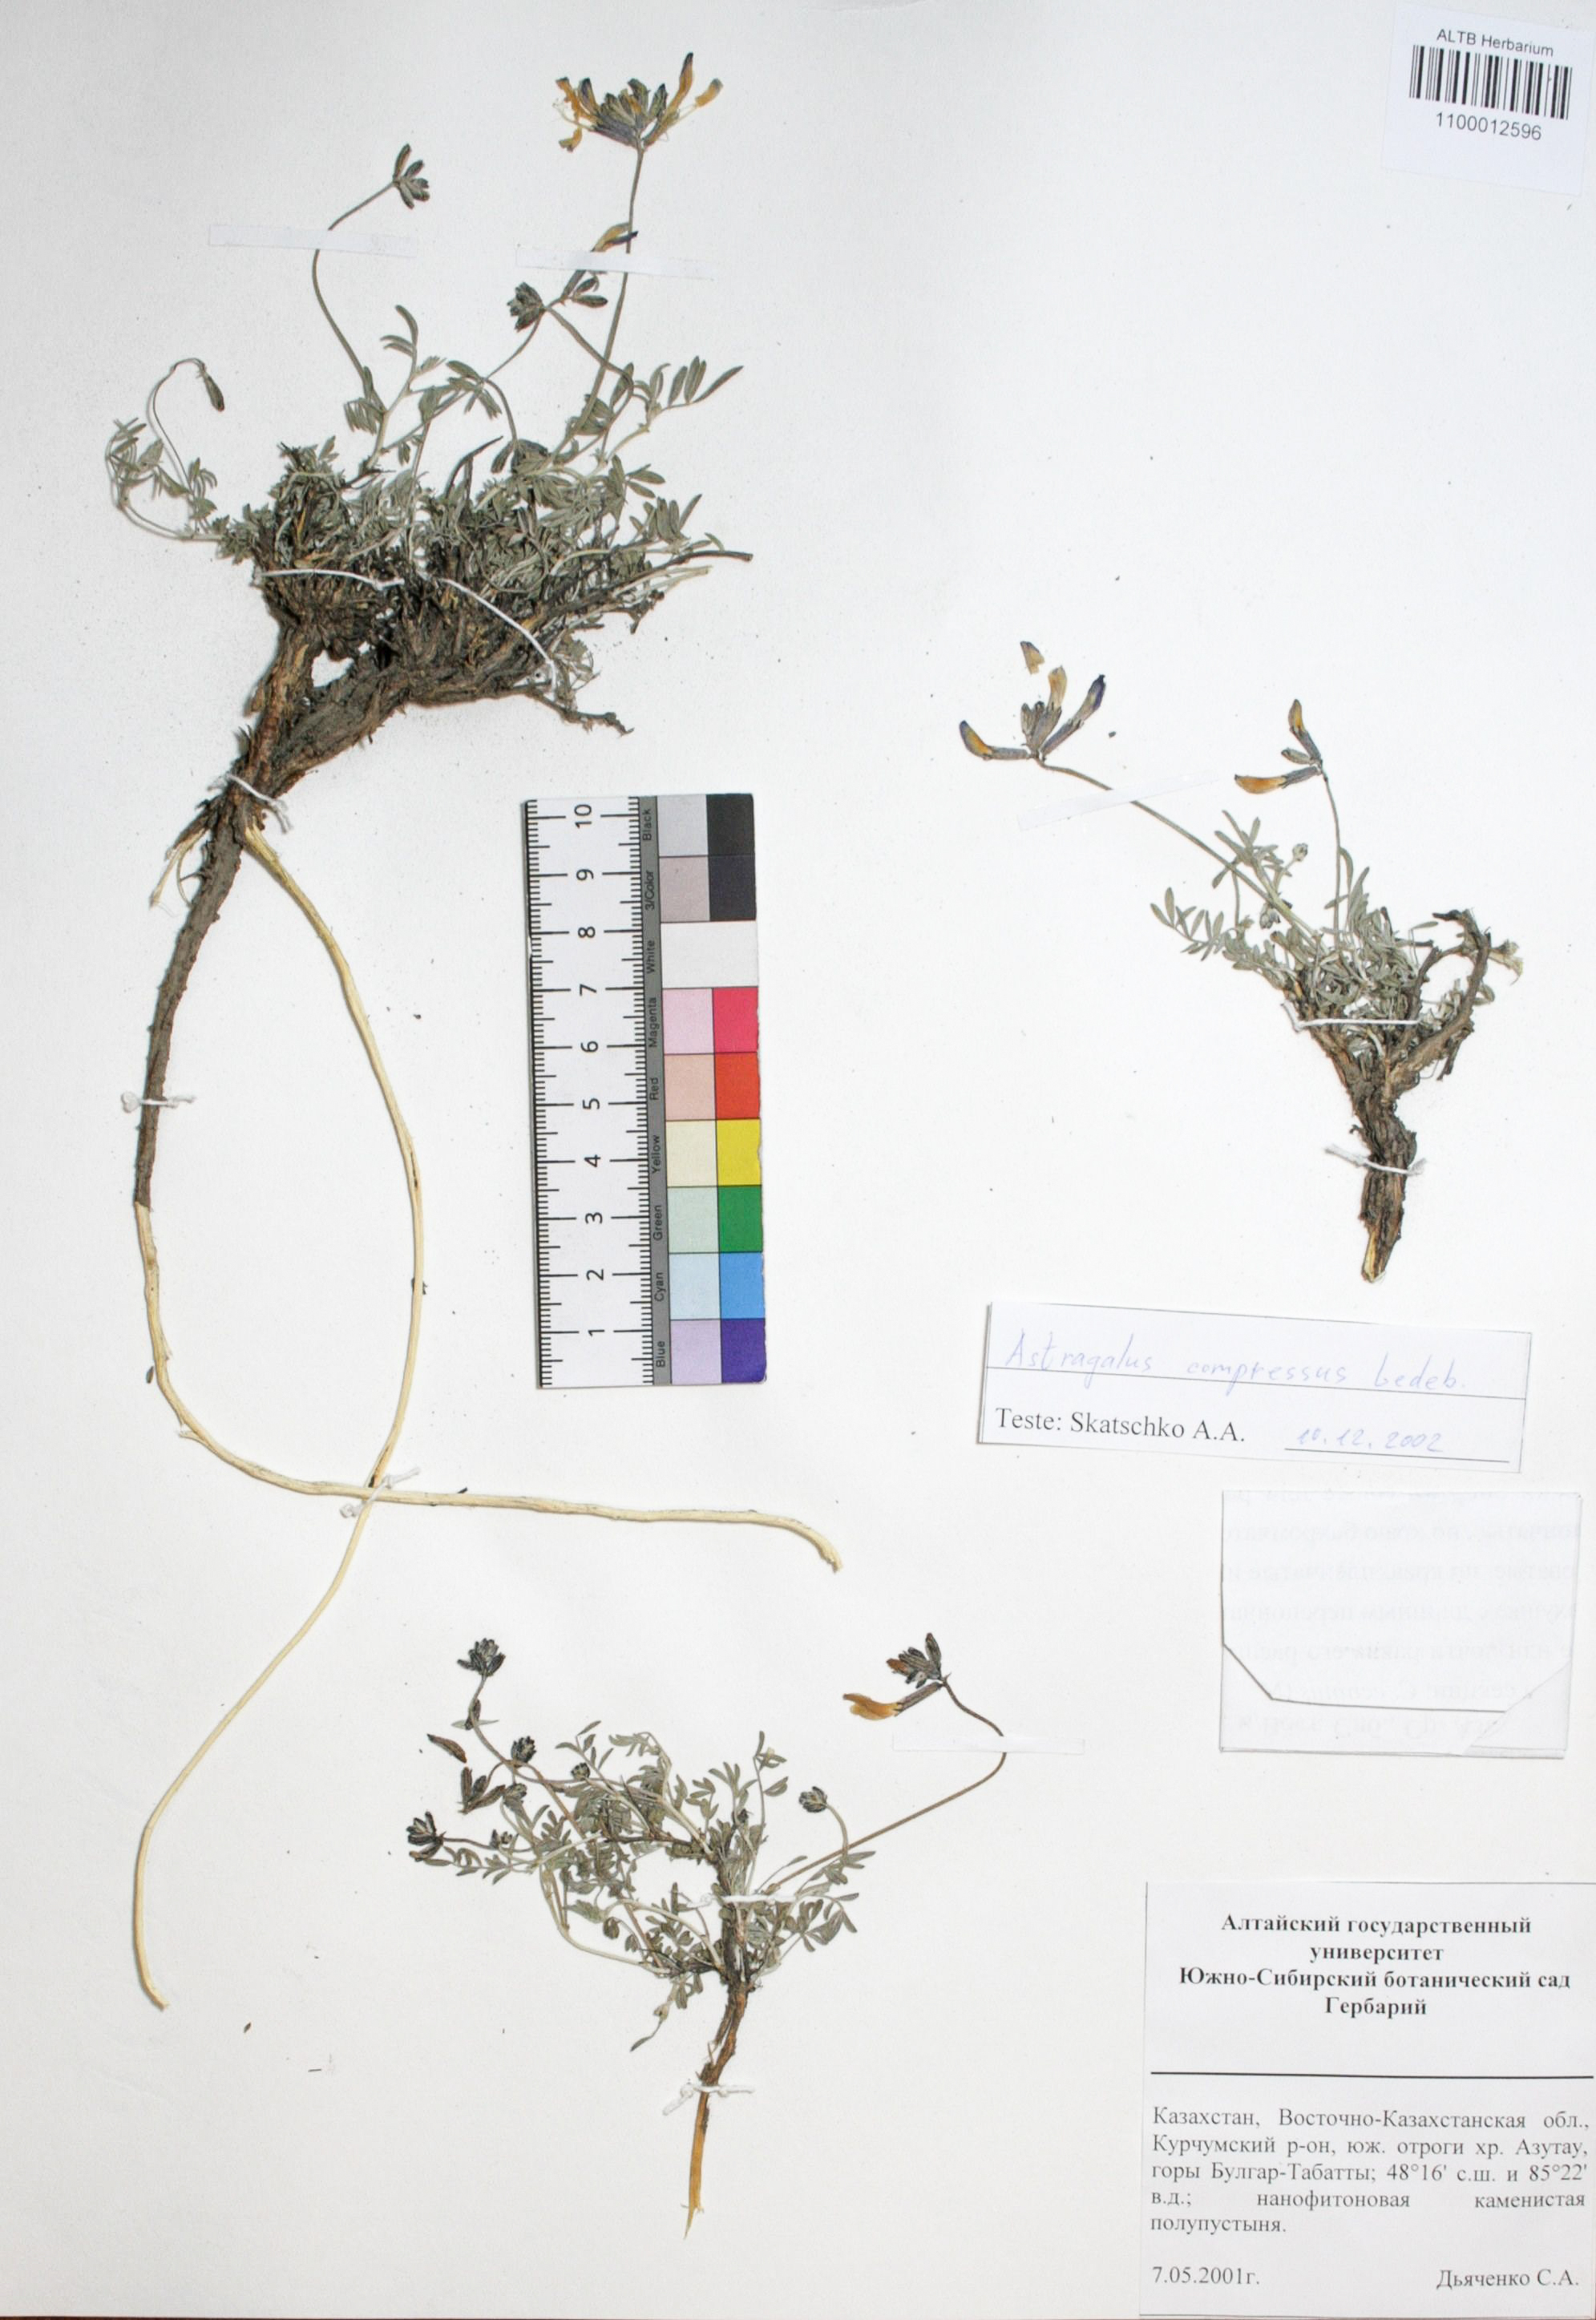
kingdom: Plantae
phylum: Tracheophyta
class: Magnoliopsida
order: Fabales
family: Fabaceae
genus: Astragalus
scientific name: Astragalus compressus
